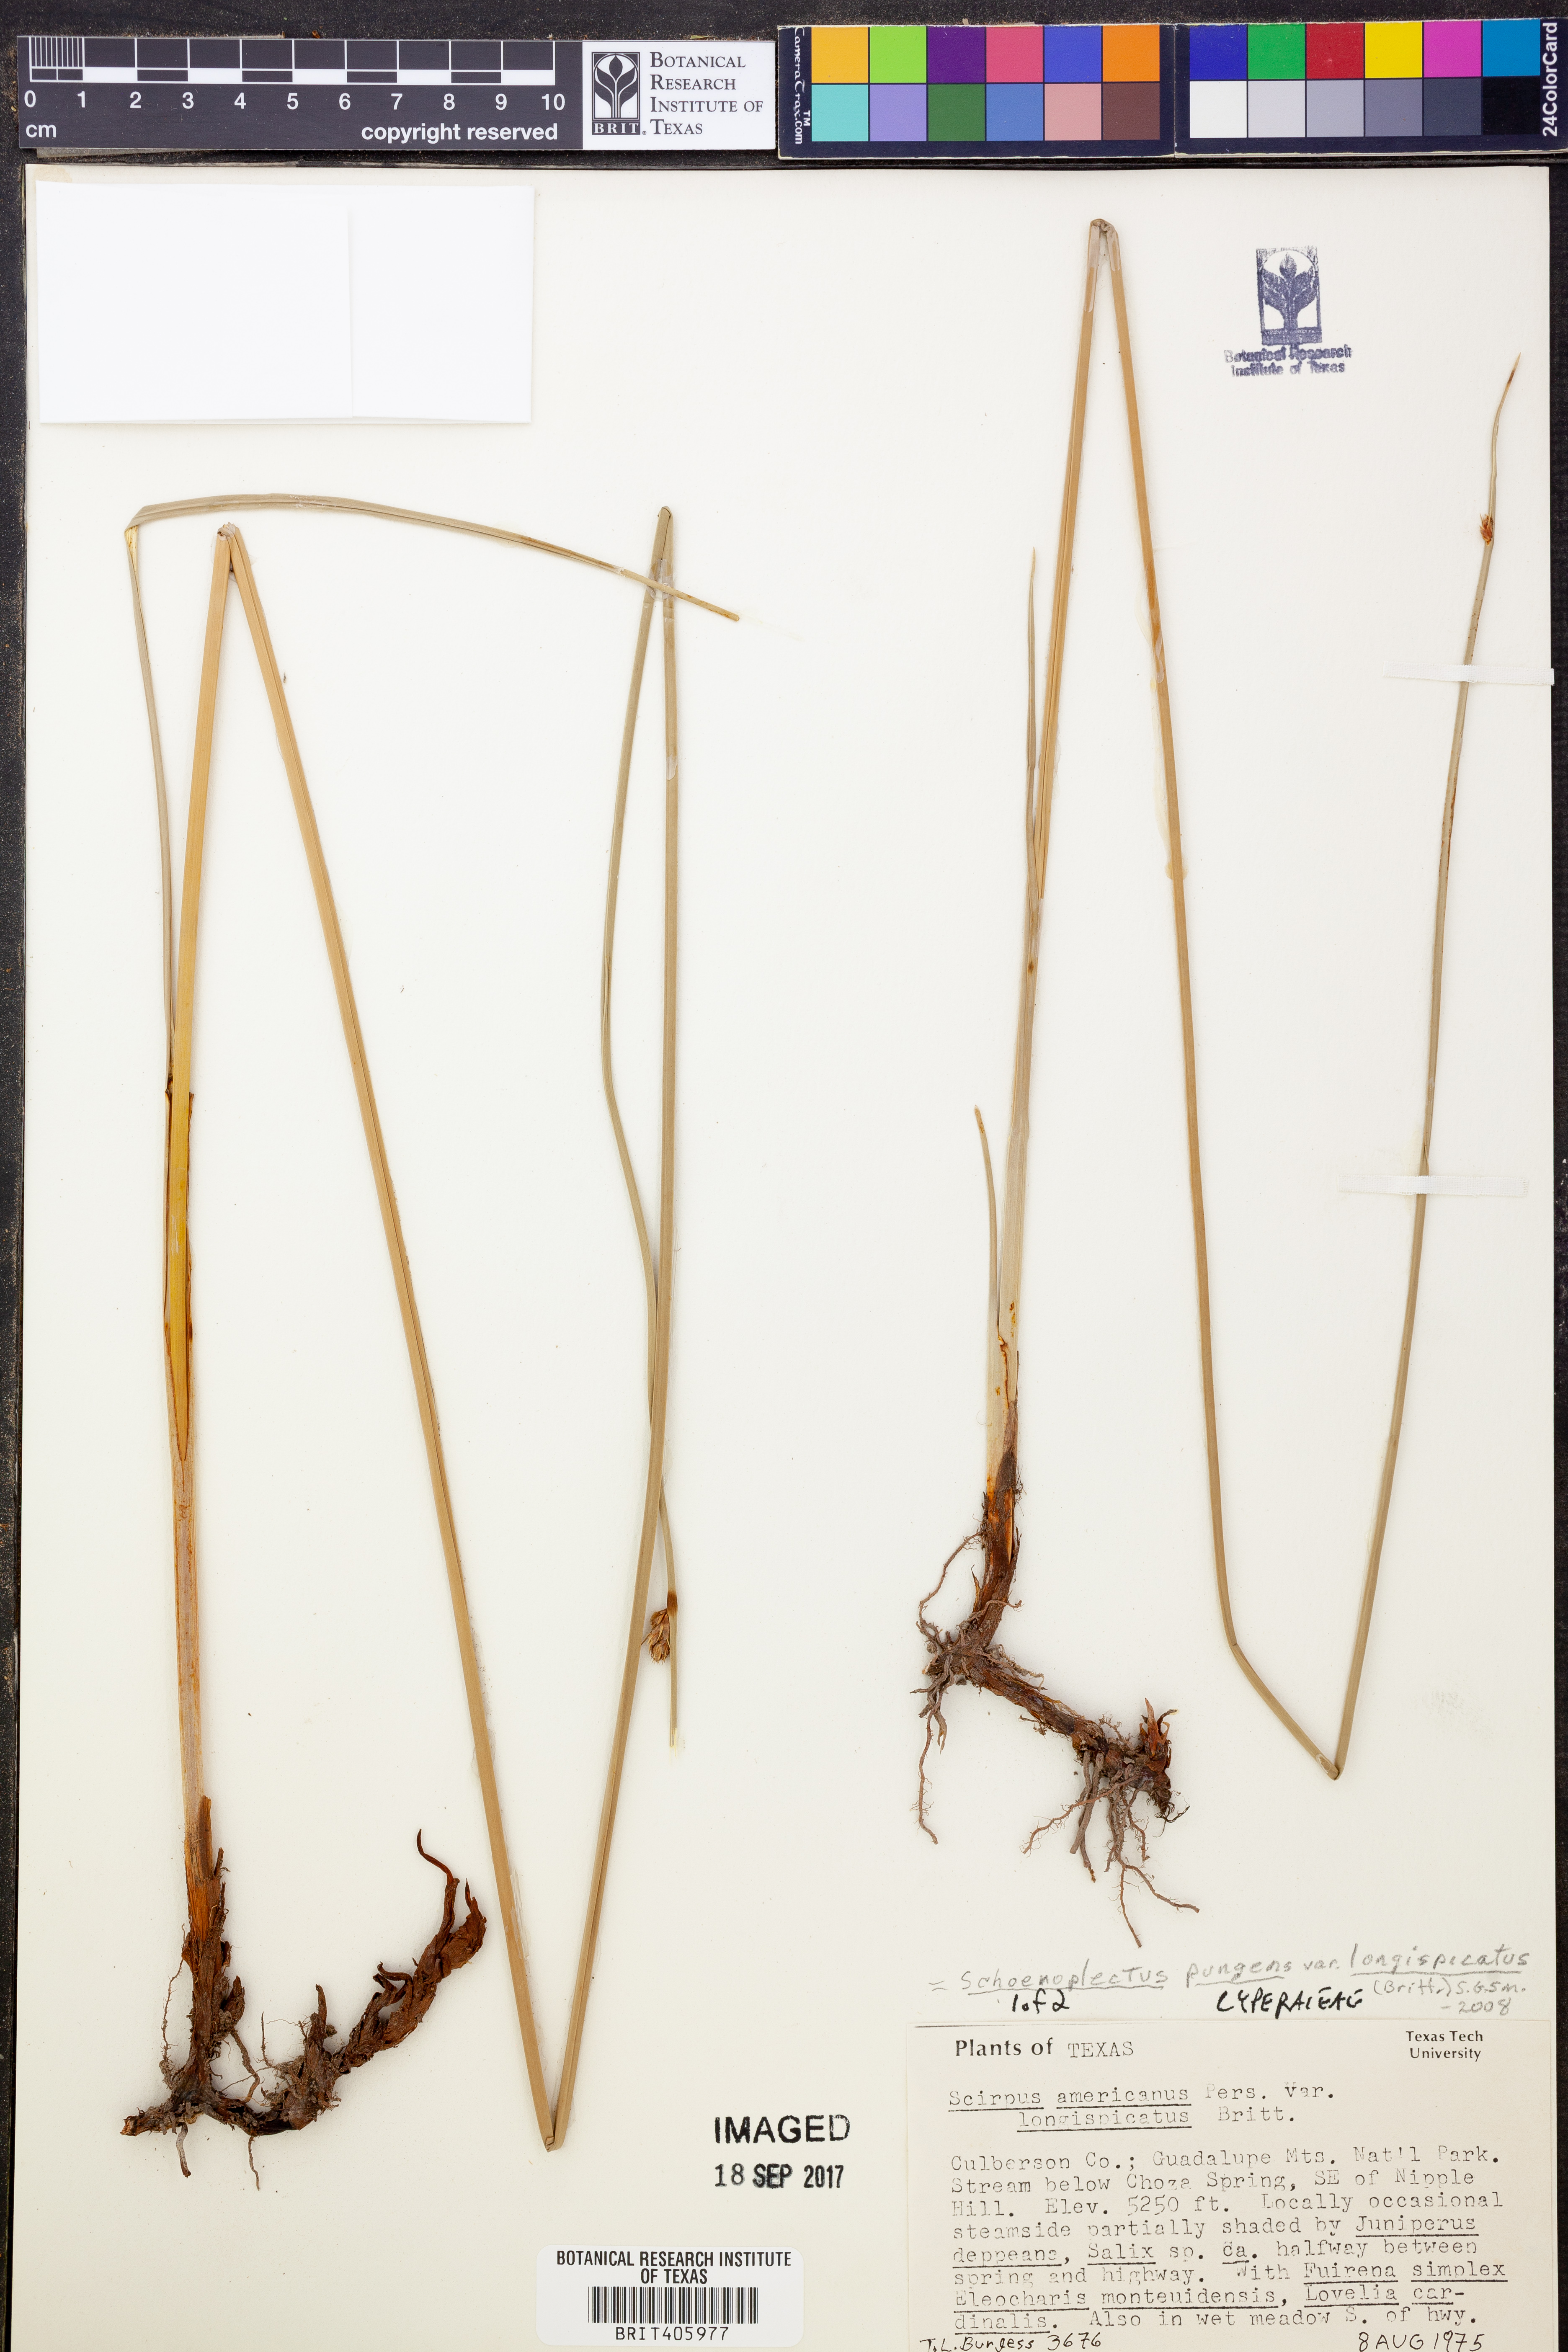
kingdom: Plantae
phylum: Tracheophyta
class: Liliopsida
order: Poales
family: Cyperaceae
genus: Schoenoplectus
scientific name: Schoenoplectus pungens
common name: Sharp club-rush
